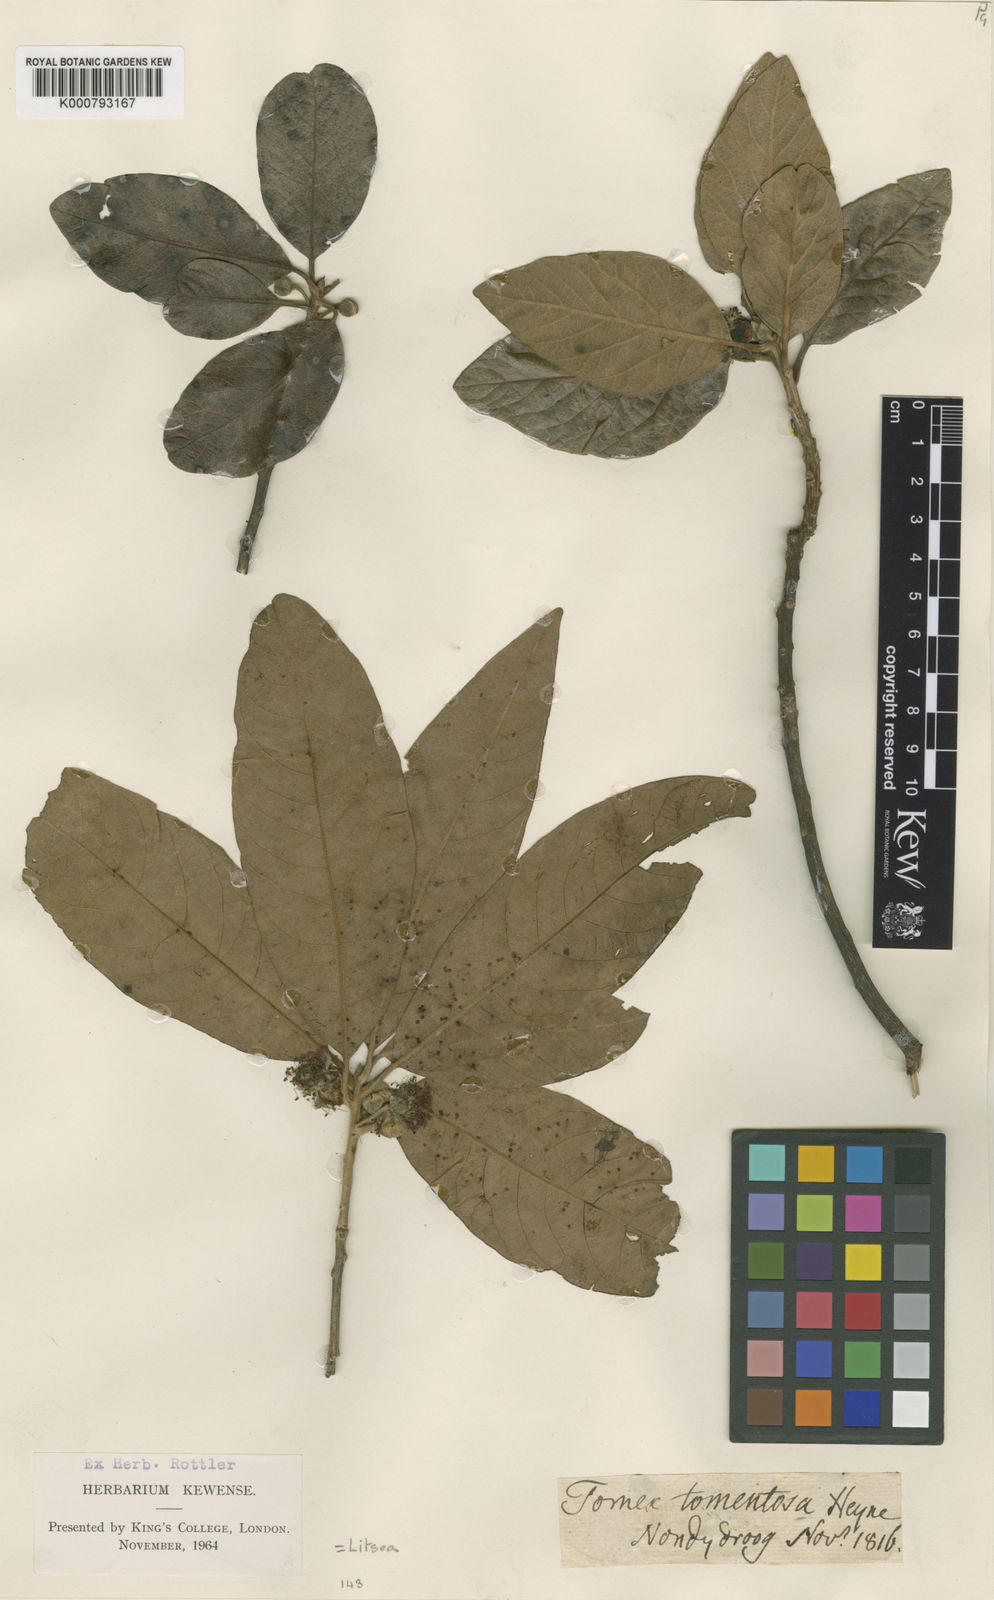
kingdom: Plantae
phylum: Tracheophyta
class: Magnoliopsida
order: Laurales
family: Lauraceae
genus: Litsea
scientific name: Litsea ligustrina
